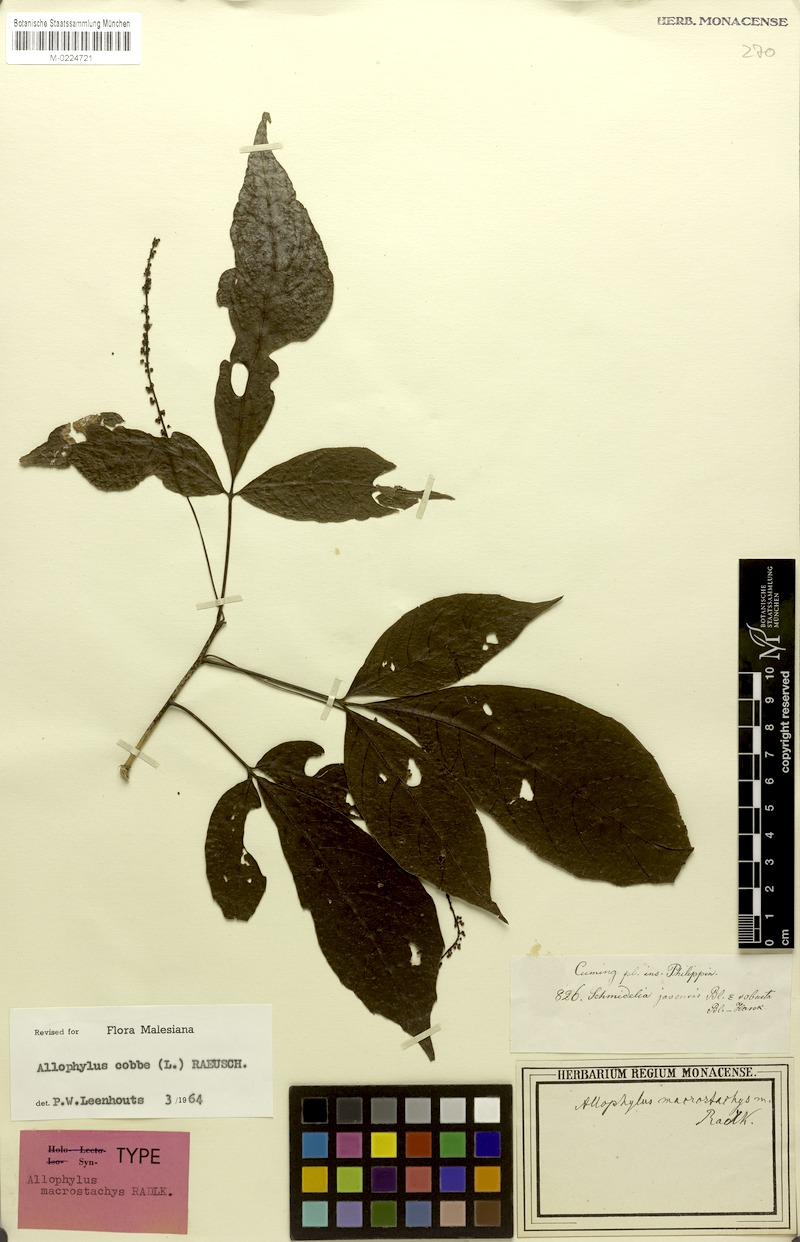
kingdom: Plantae
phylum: Tracheophyta
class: Magnoliopsida
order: Sapindales
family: Sapindaceae
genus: Allophylus
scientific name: Allophylus macrostachys
